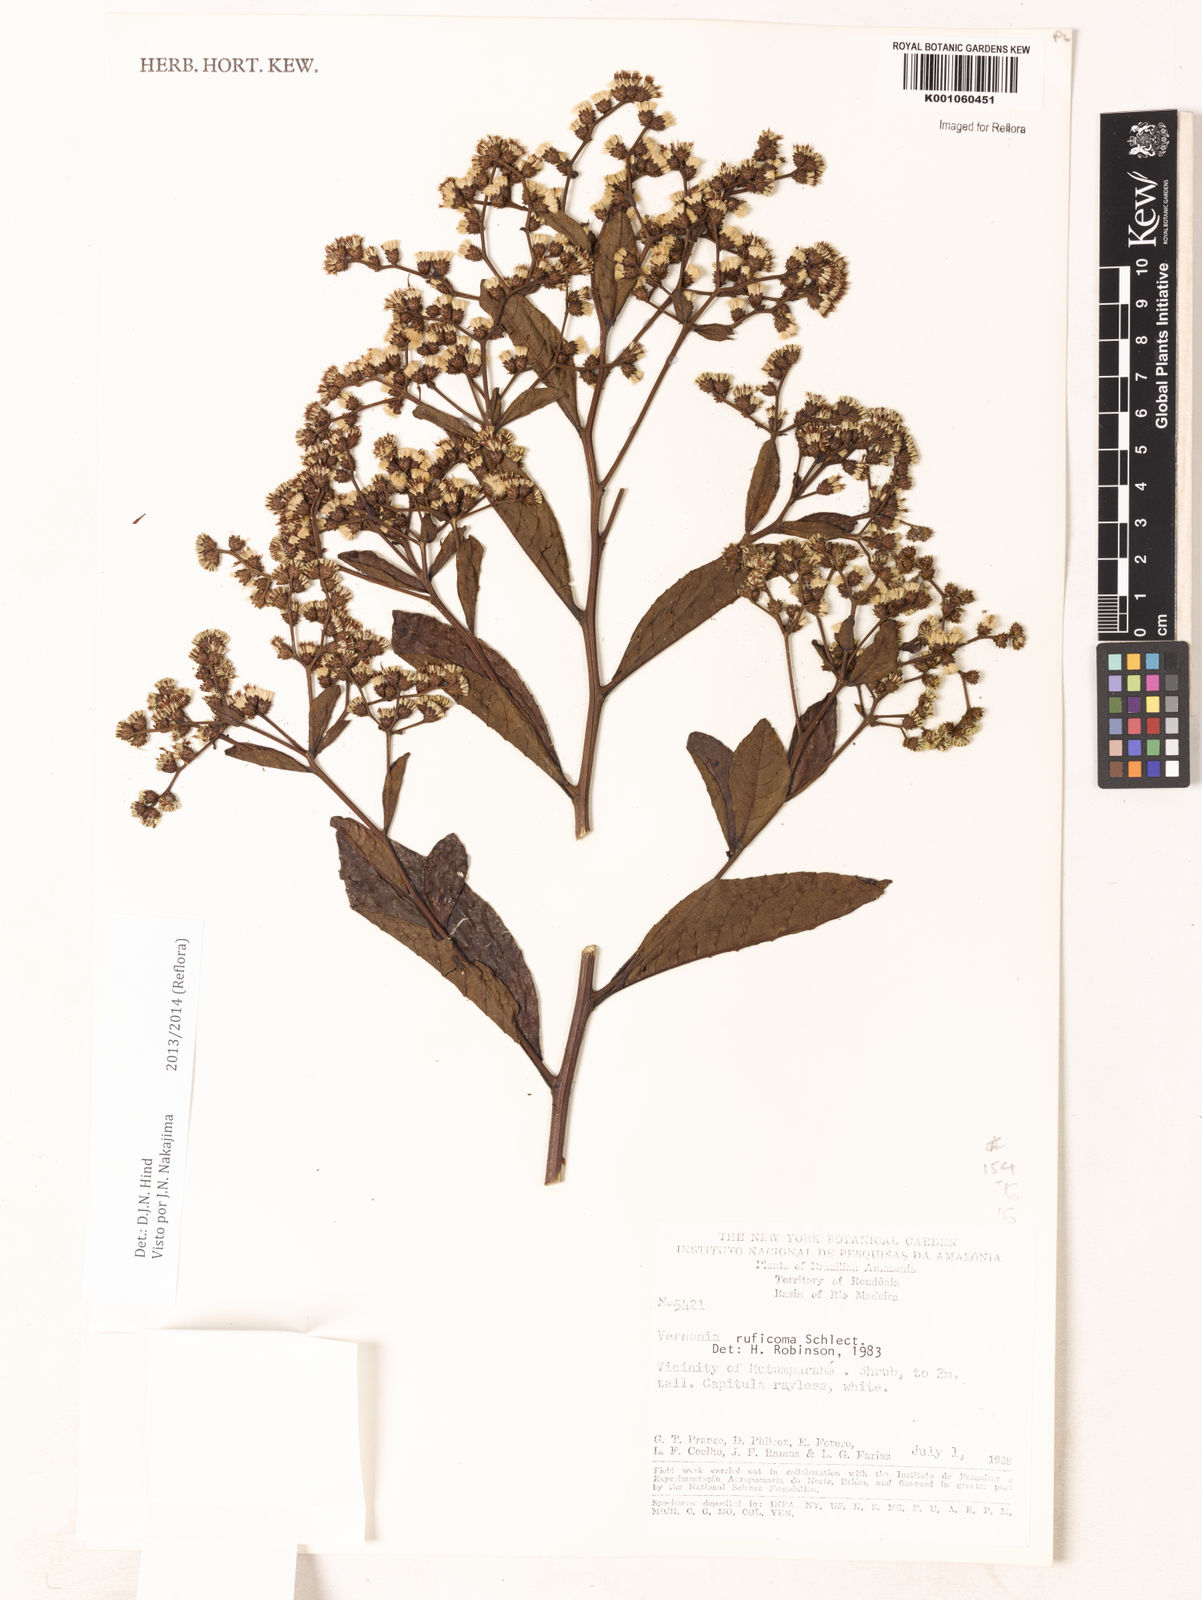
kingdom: Plantae
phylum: Tracheophyta
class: Magnoliopsida
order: Asterales
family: Asteraceae
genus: Vernonia
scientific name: Vernonia
